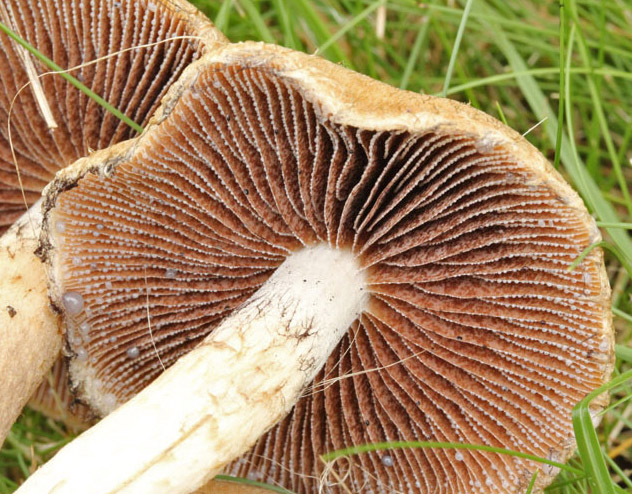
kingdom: Fungi
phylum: Basidiomycota
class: Agaricomycetes
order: Agaricales
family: Psathyrellaceae
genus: Lacrymaria
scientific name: Lacrymaria lacrymabunda
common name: grædende mørkhat
